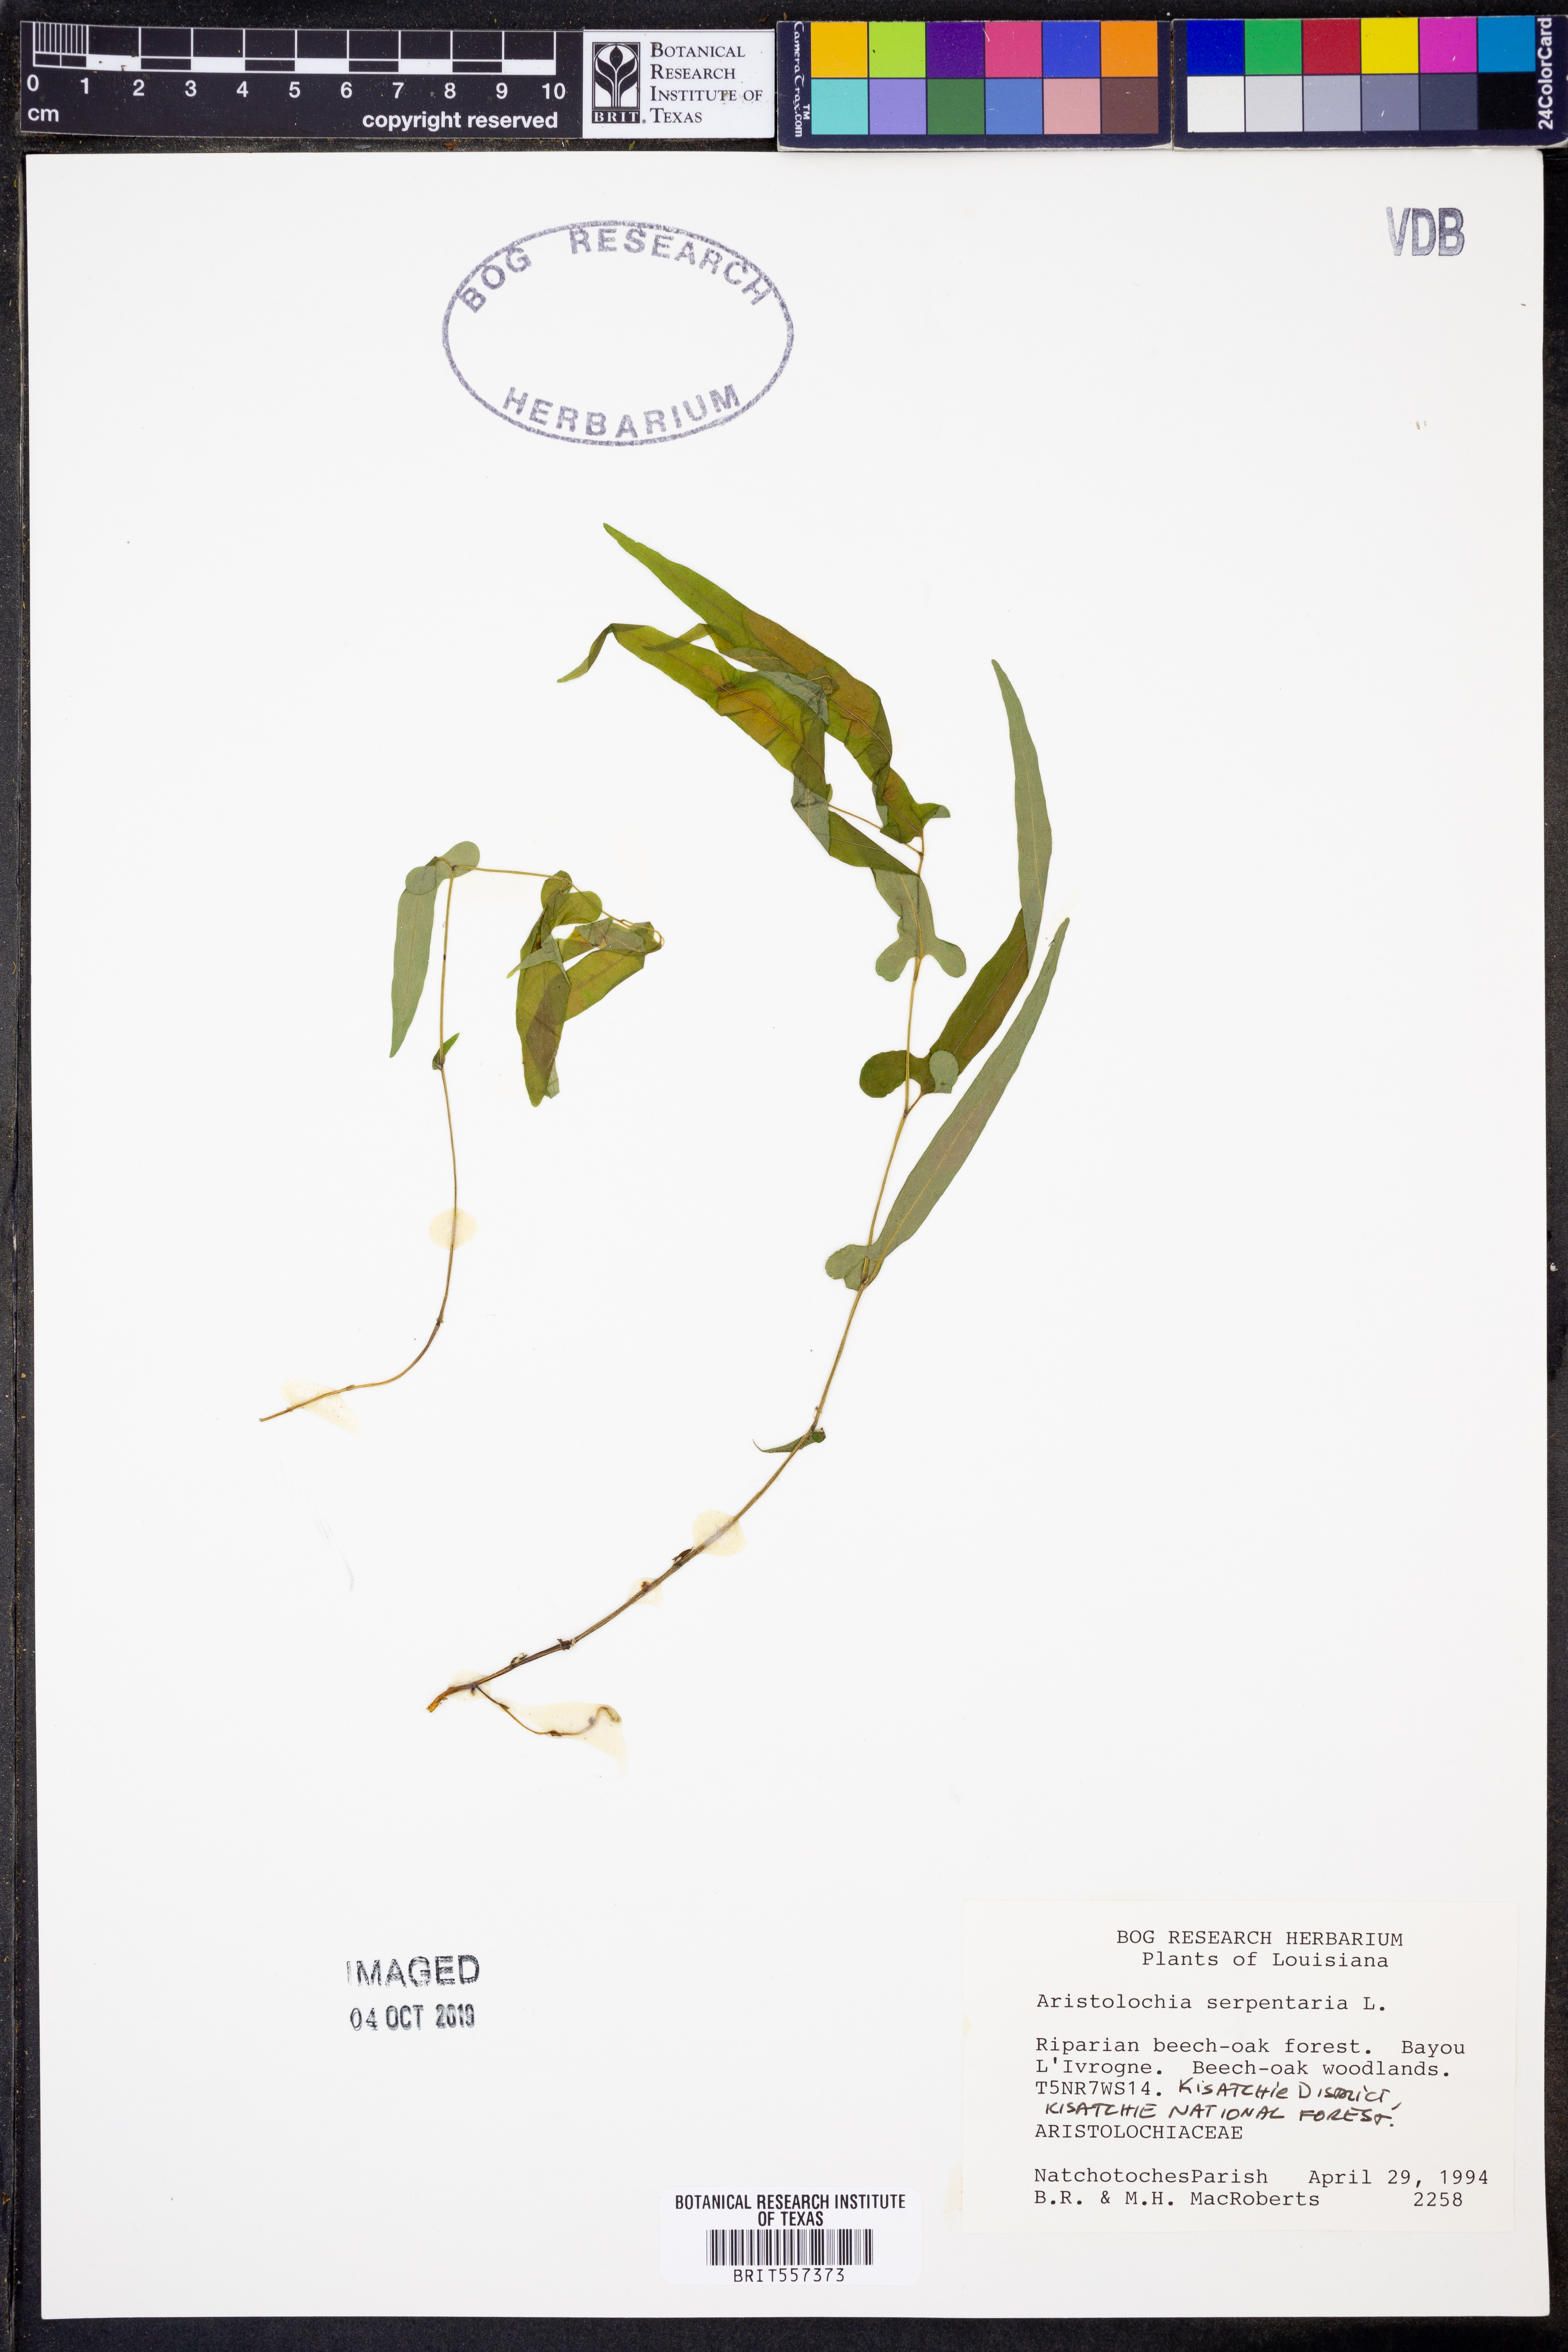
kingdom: Plantae
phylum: Tracheophyta
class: Magnoliopsida
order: Piperales
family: Aristolochiaceae
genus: Endodeca
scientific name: Endodeca serpentaria
